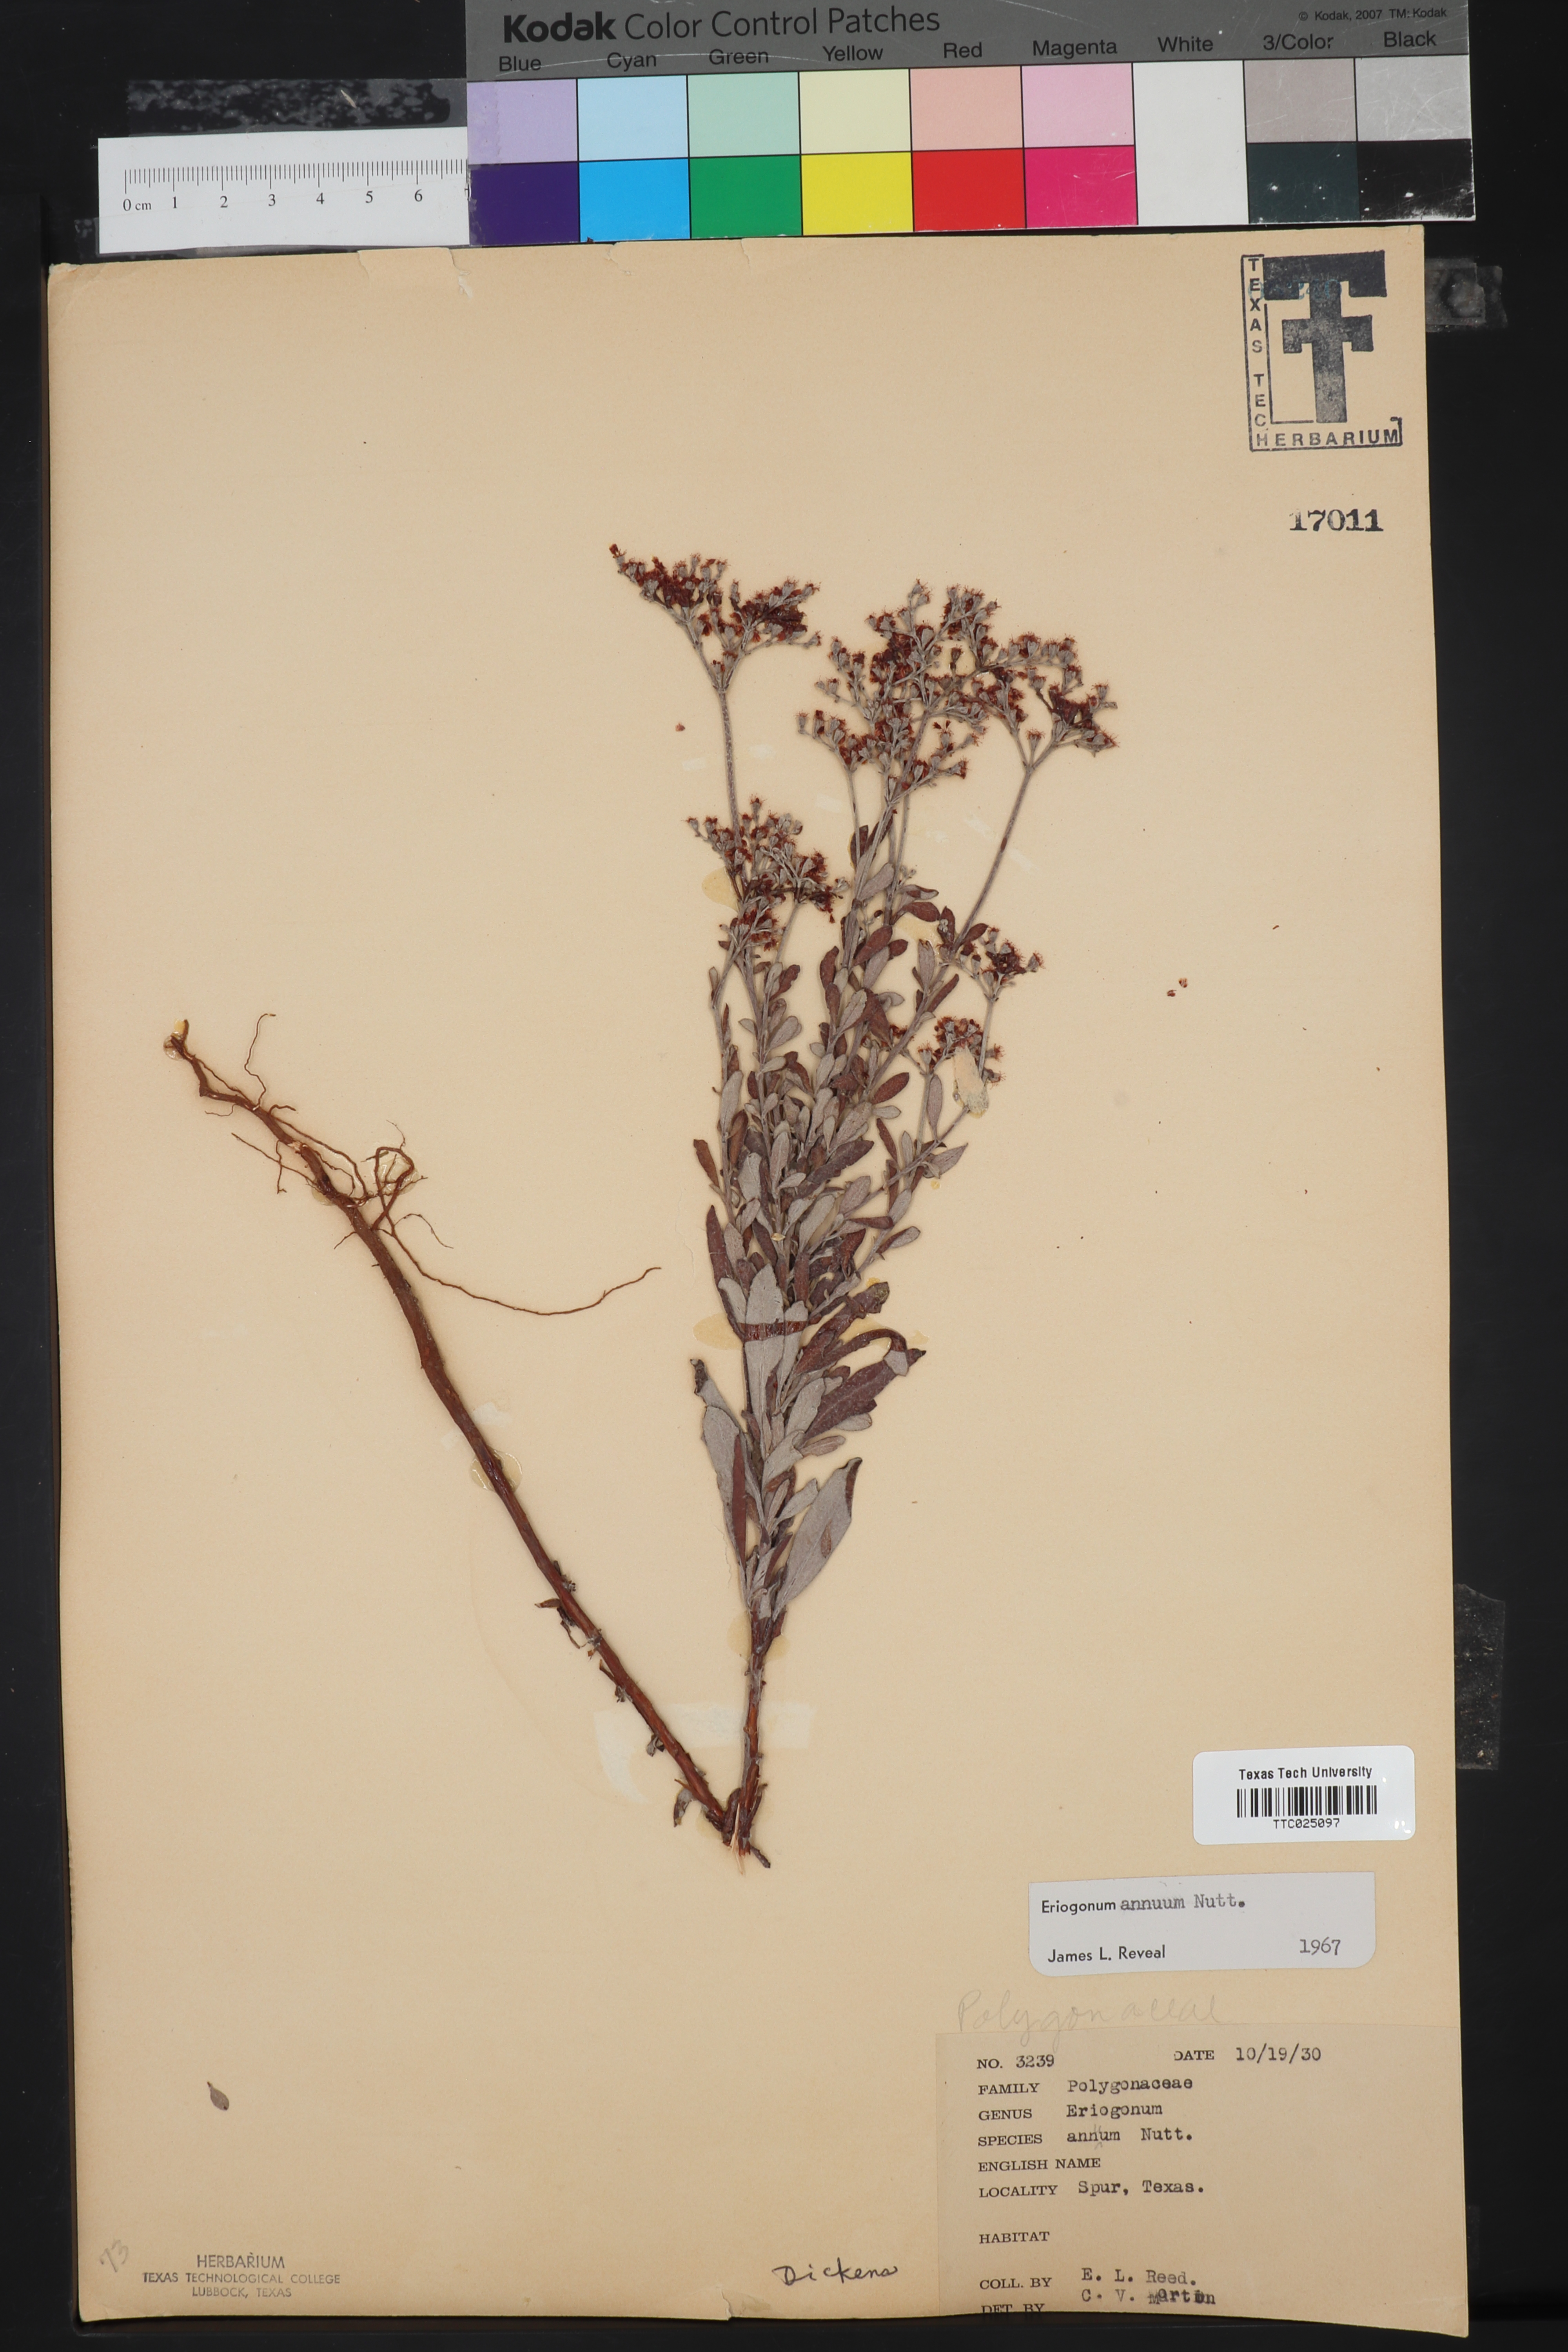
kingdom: Plantae
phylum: Tracheophyta
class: Magnoliopsida
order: Caryophyllales
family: Polygonaceae
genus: Eriogonum
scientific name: Eriogonum annuum
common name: Annual wild buckwheat
